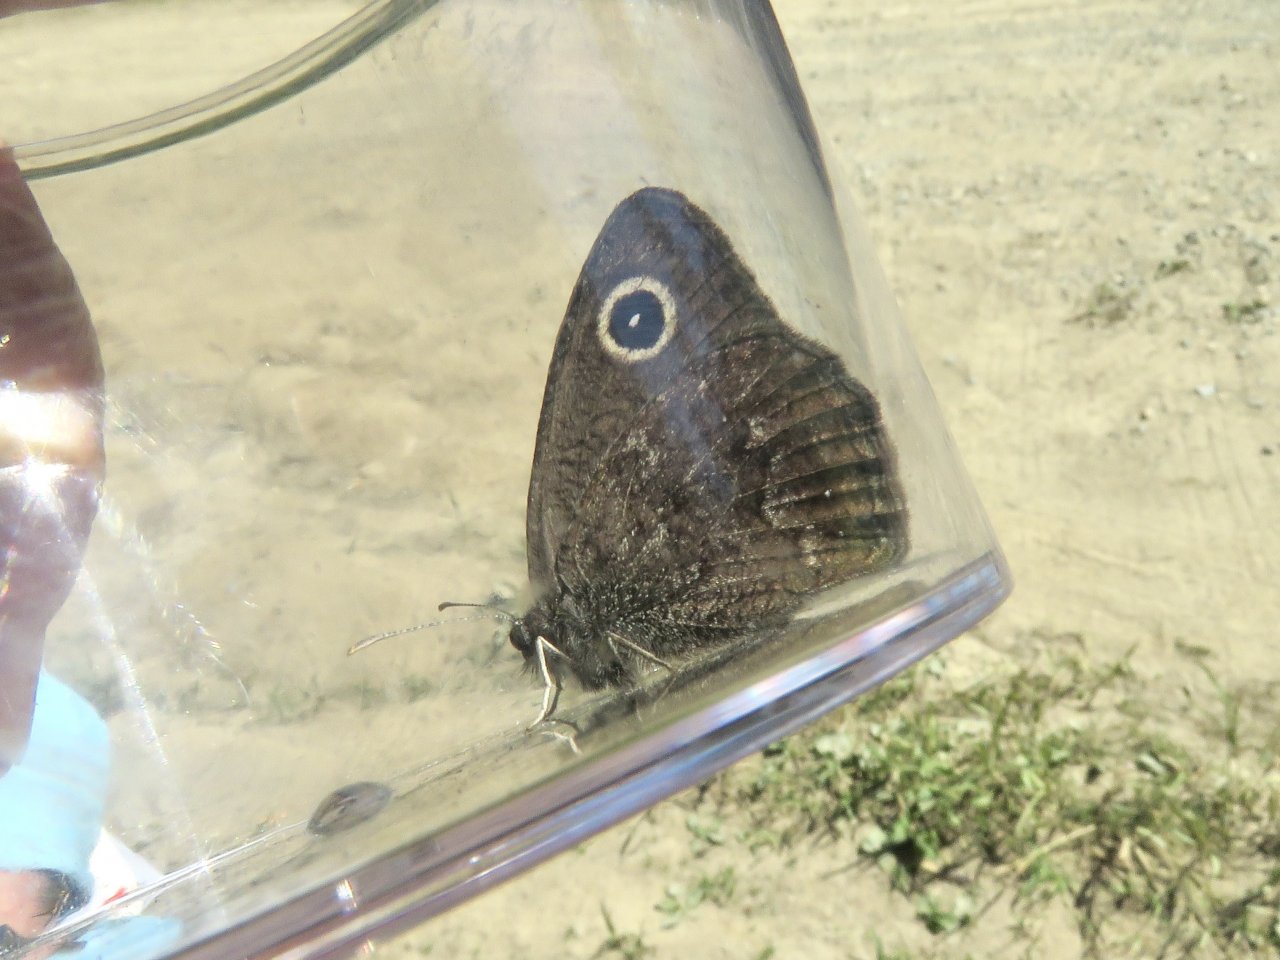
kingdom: Animalia
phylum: Arthropoda
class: Insecta
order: Lepidoptera
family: Nymphalidae
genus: Cercyonis
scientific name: Cercyonis oetus
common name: Small Wood-Nymph
